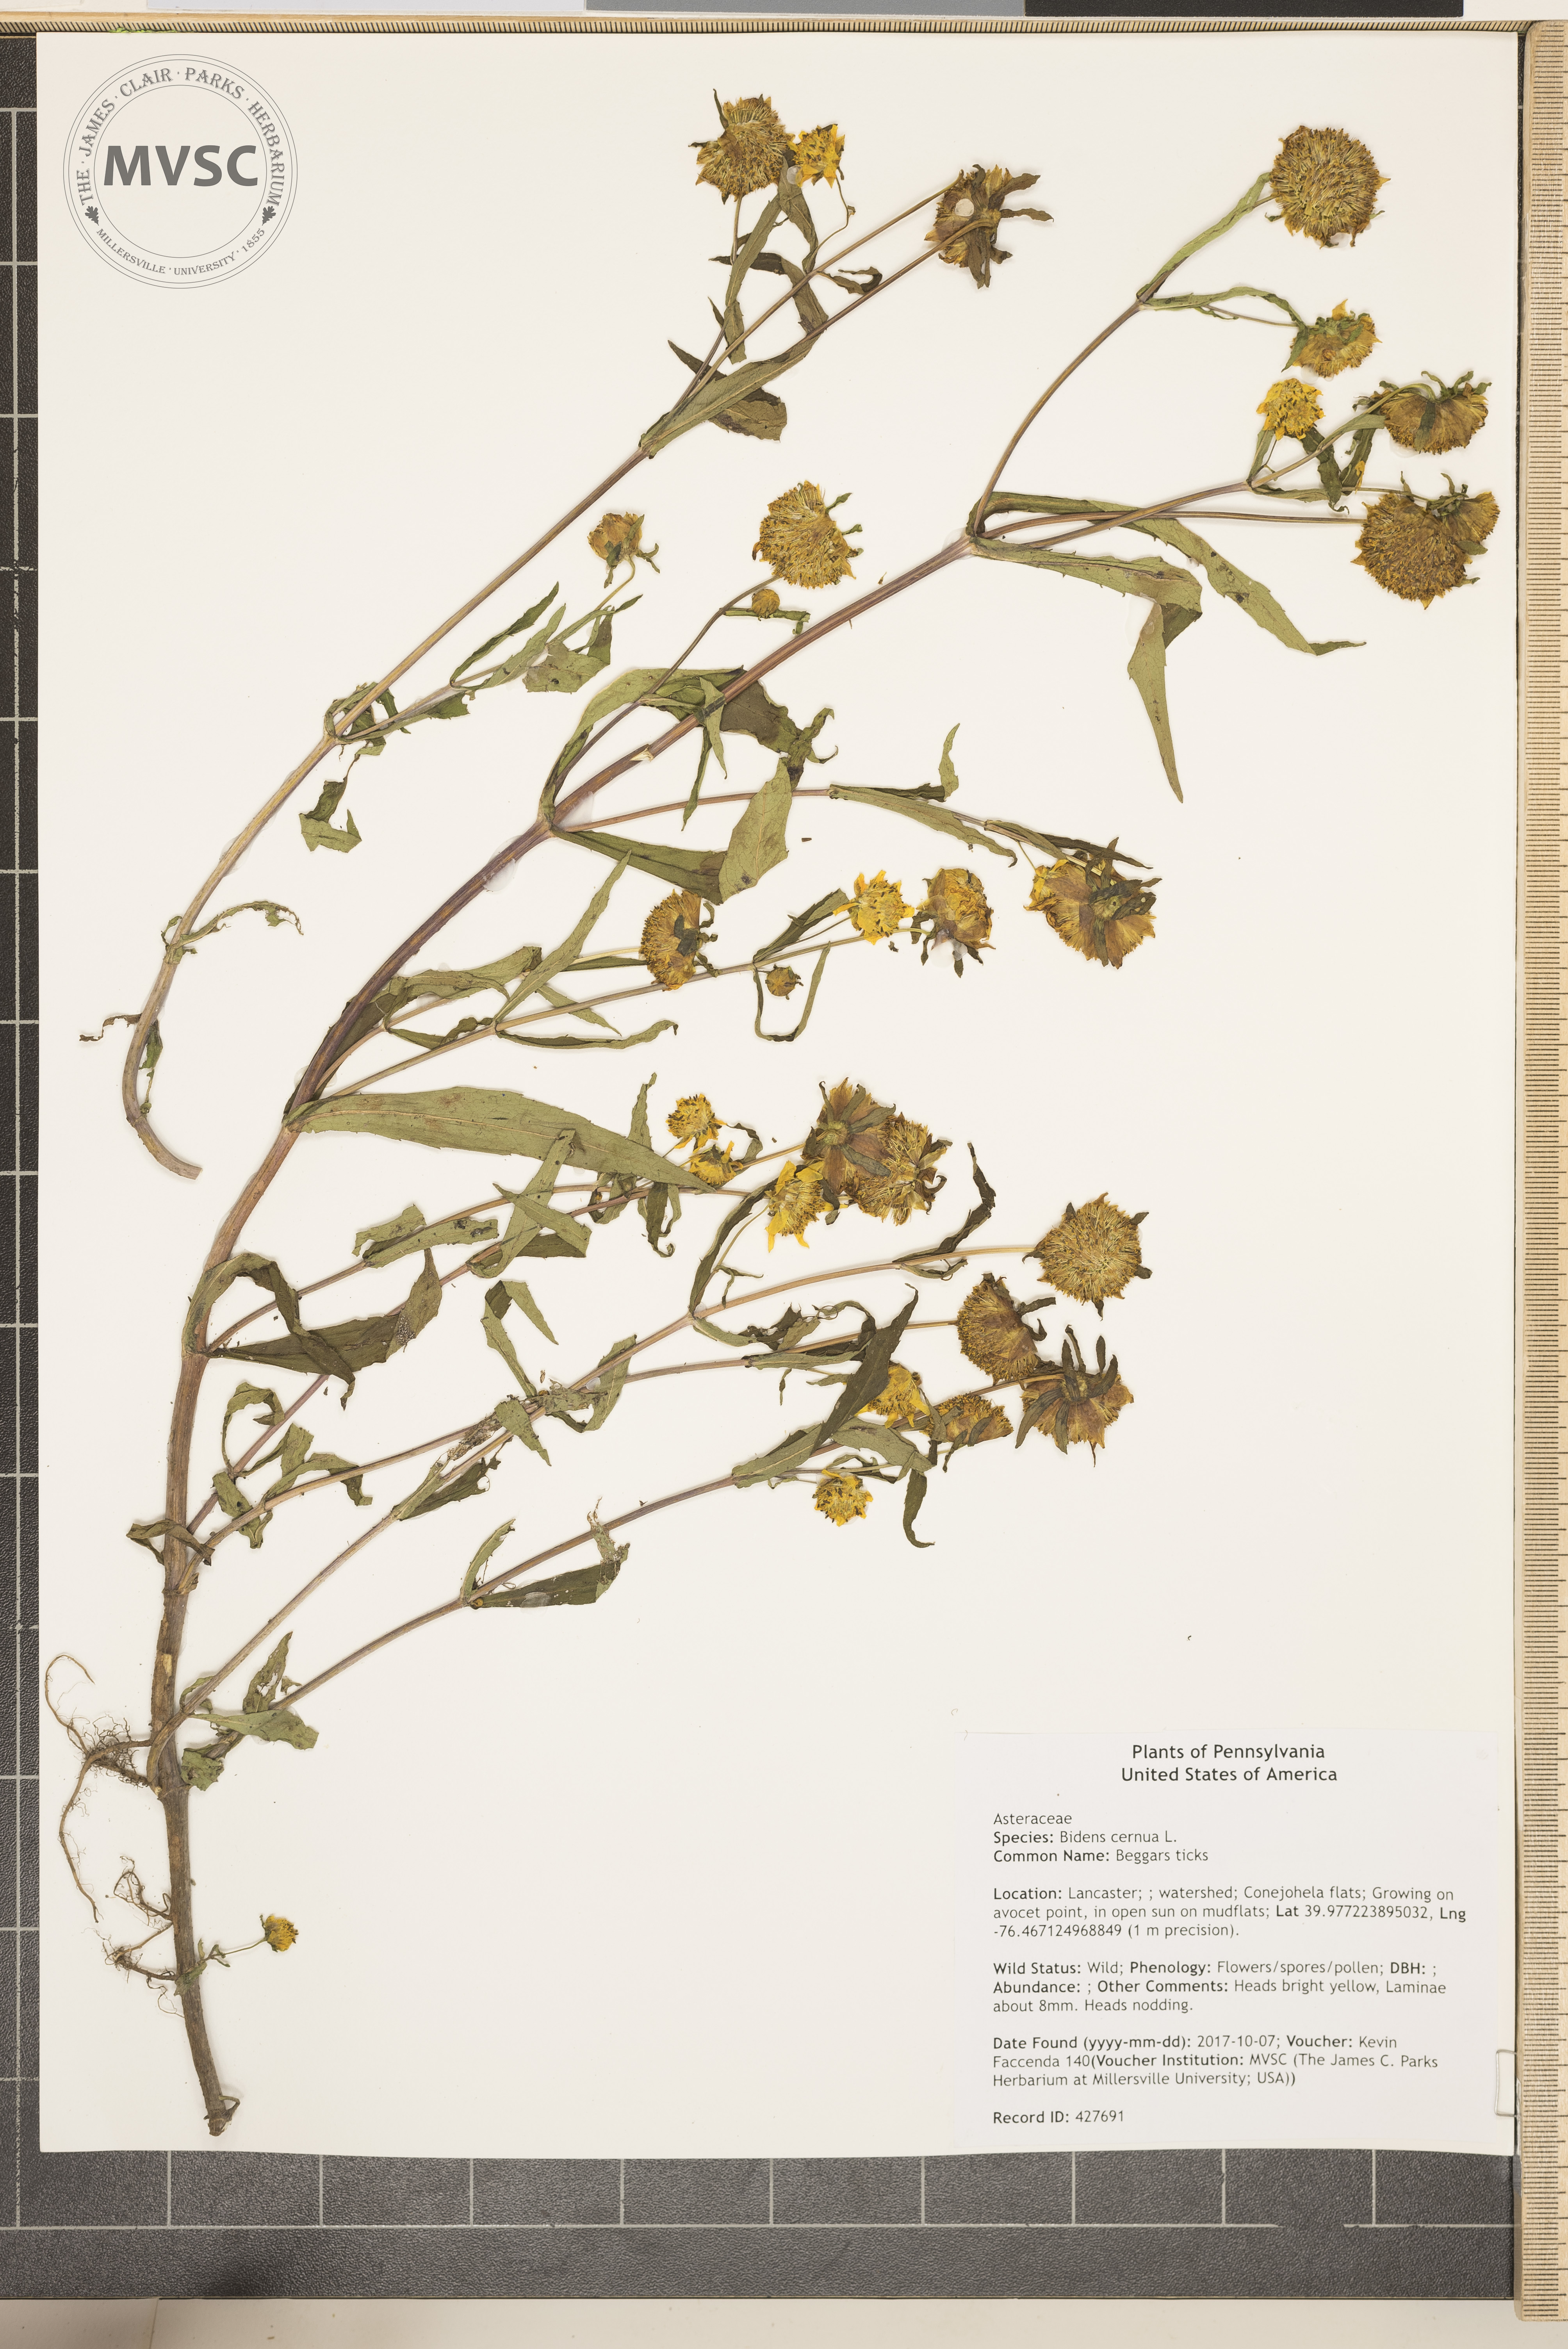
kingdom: Plantae
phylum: Tracheophyta
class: Magnoliopsida
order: Asterales
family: Asteraceae
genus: Bidens
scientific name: Bidens cernua
